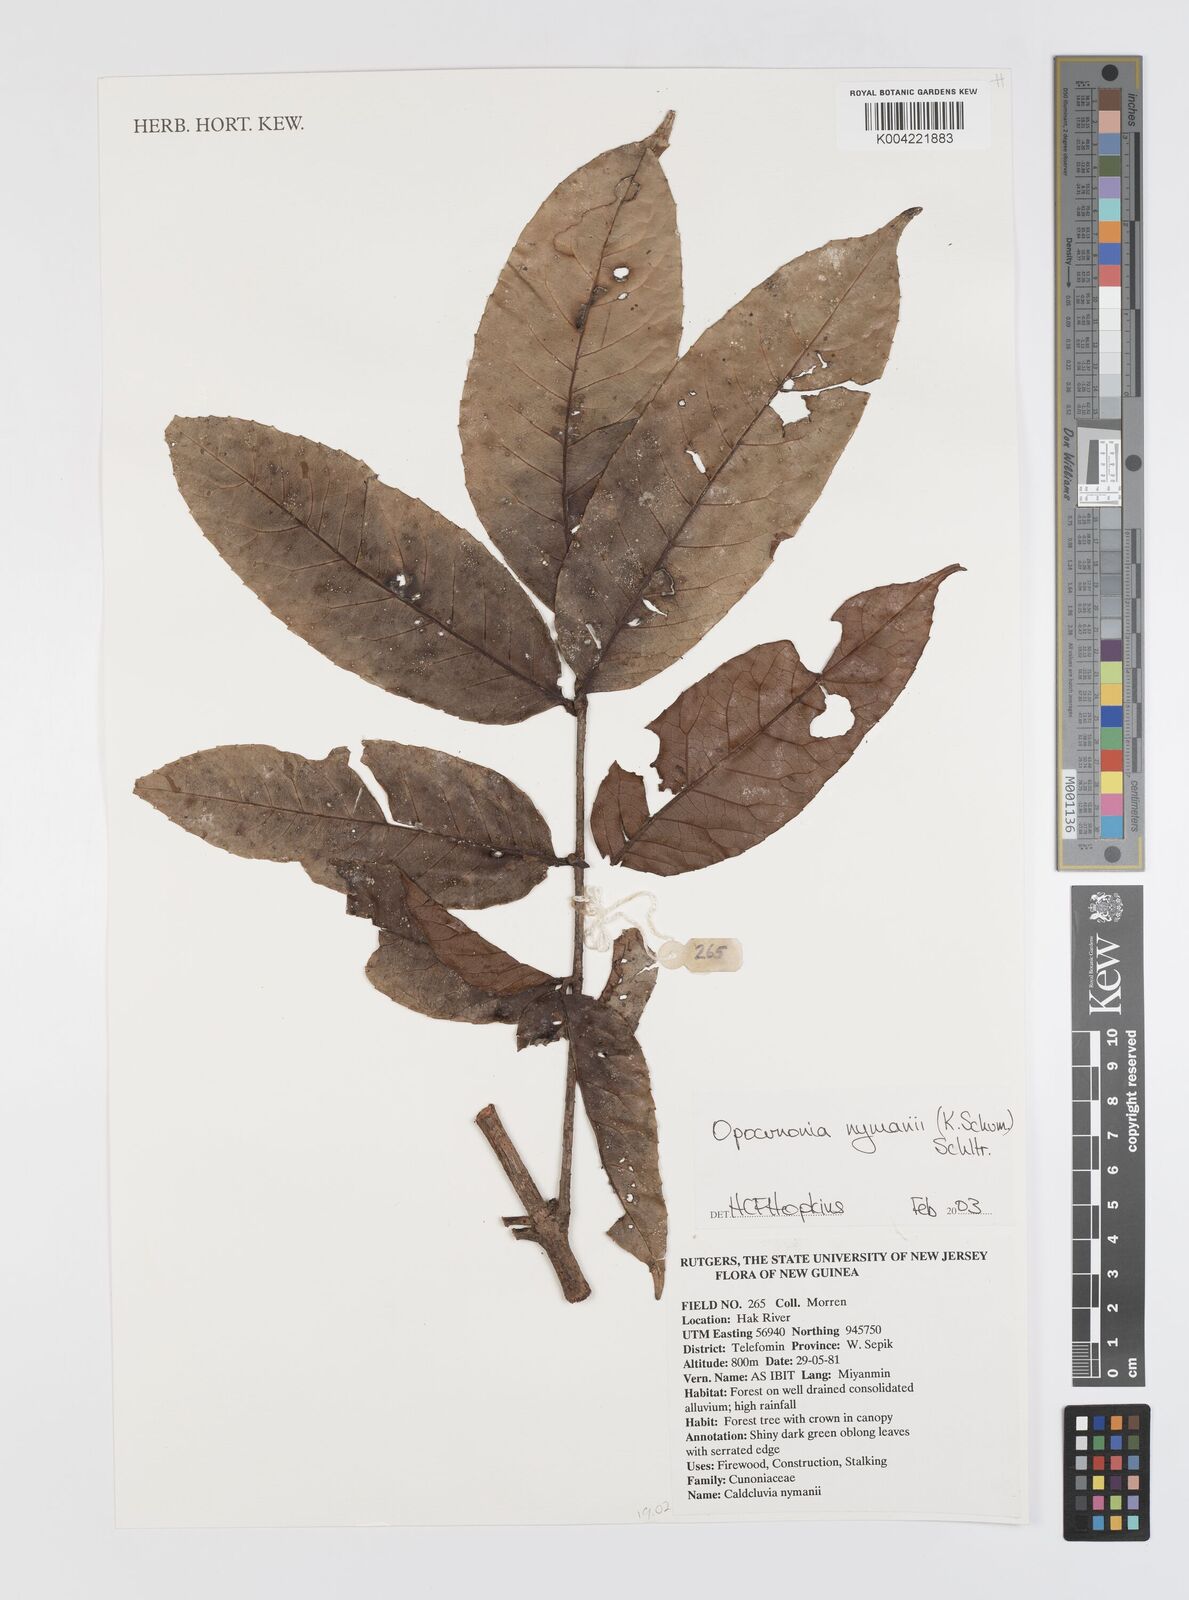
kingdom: Plantae
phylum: Tracheophyta
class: Magnoliopsida
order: Oxalidales
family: Cunoniaceae
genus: Opocunonia
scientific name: Opocunonia nymanii
